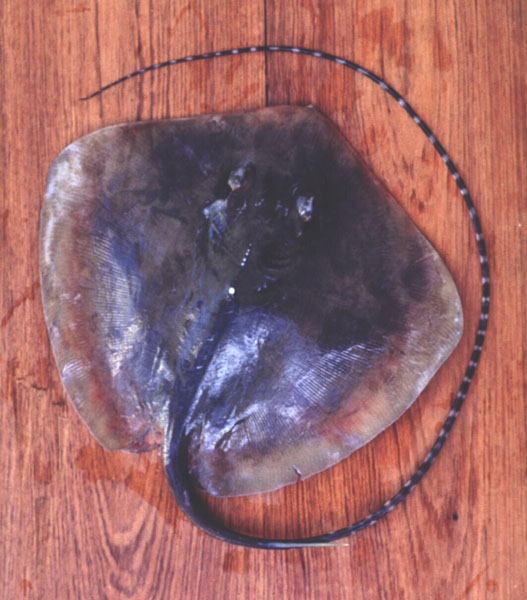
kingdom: Animalia
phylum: Chordata
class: Elasmobranchii
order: Myliobatiformes
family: Dasyatidae
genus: Maculabatis
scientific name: Maculabatis gerrardi
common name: Sharpnose stingray
